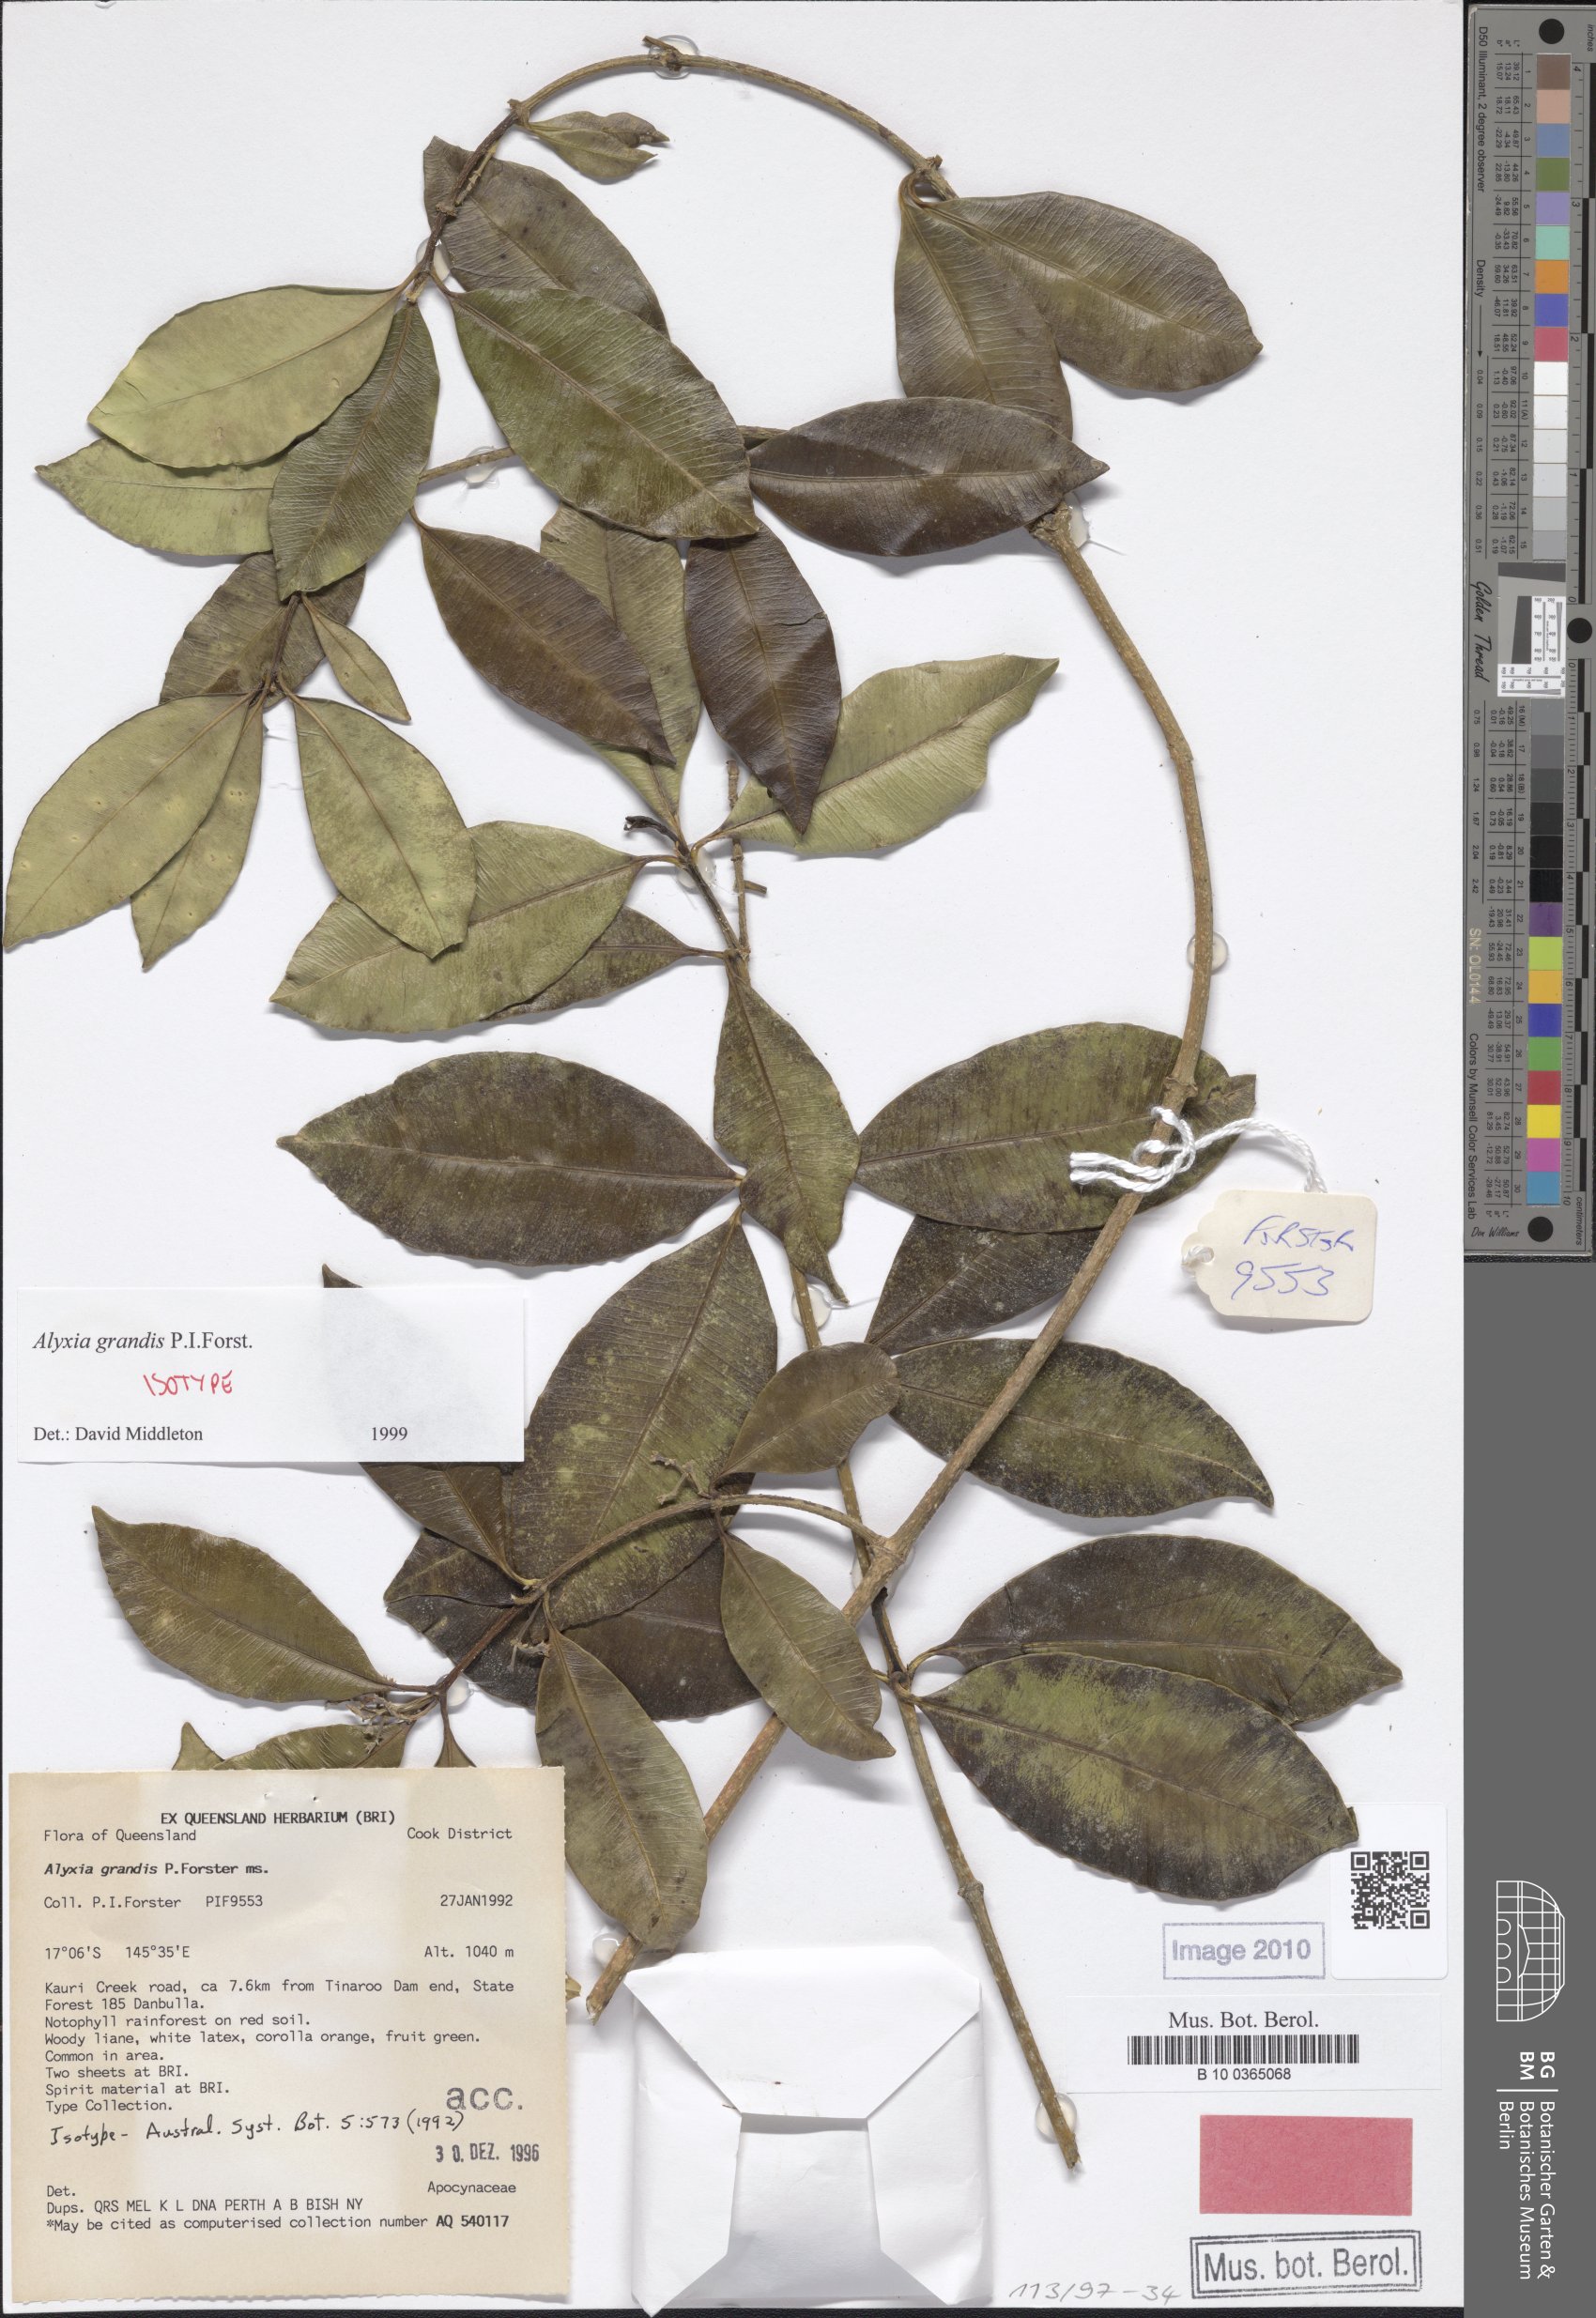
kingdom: Plantae
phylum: Tracheophyta
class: Magnoliopsida
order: Gentianales
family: Apocynaceae
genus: Alyxia
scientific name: Alyxia grandis
